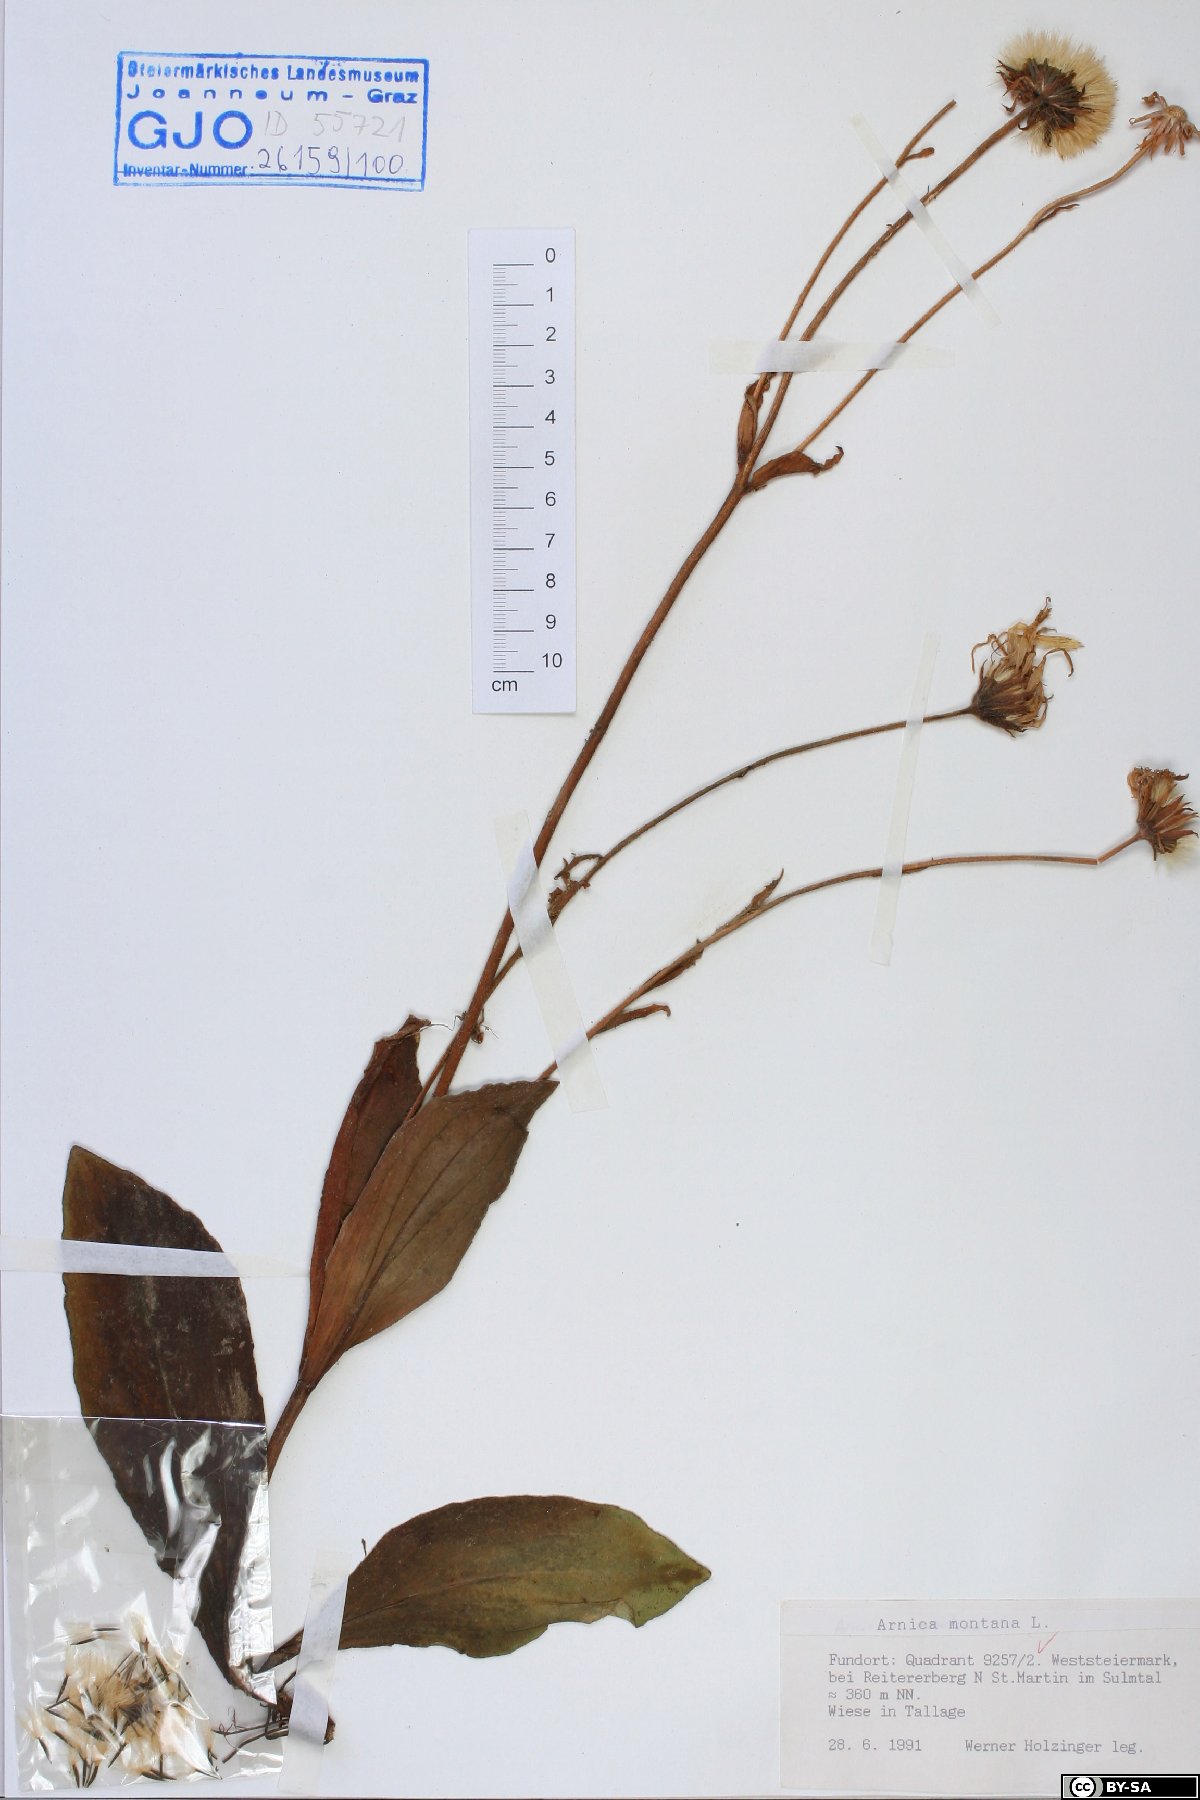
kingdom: Plantae
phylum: Tracheophyta
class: Magnoliopsida
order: Asterales
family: Asteraceae
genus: Arnica
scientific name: Arnica montana
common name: Leopard's bane
